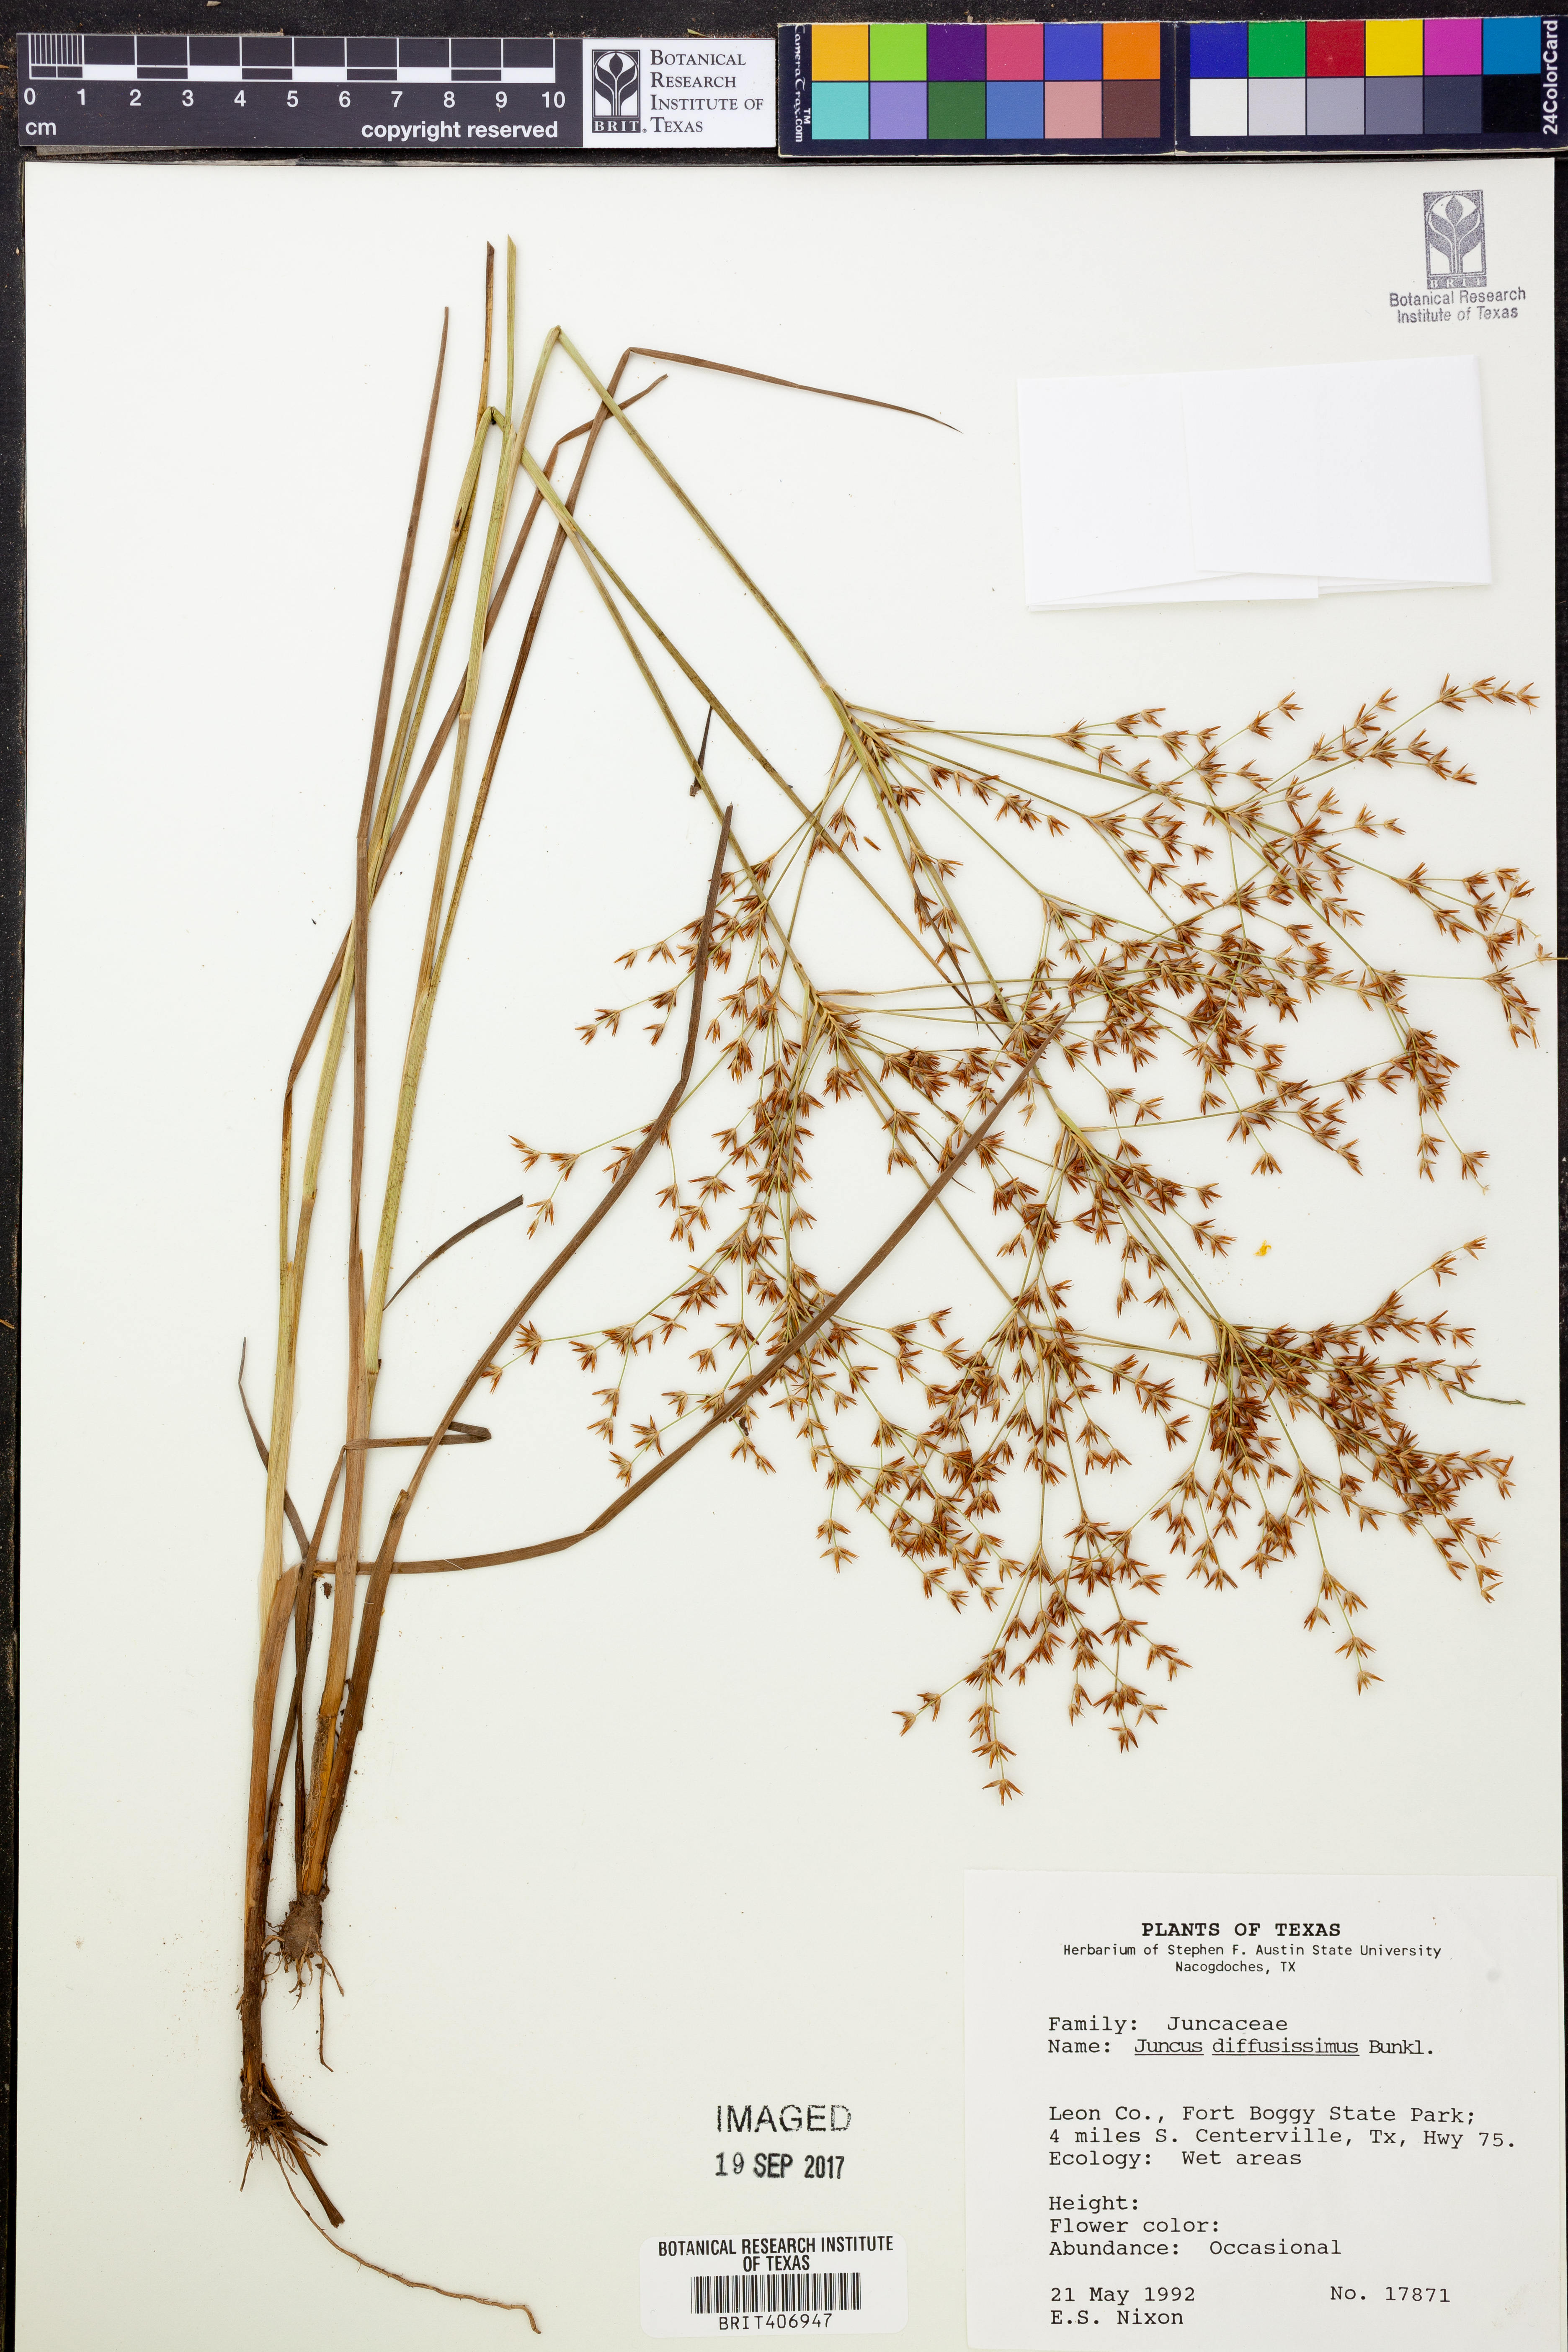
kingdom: Plantae
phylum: Tracheophyta
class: Liliopsida
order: Poales
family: Juncaceae
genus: Juncus
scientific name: Juncus diffusissimus
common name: Slimpod rush
